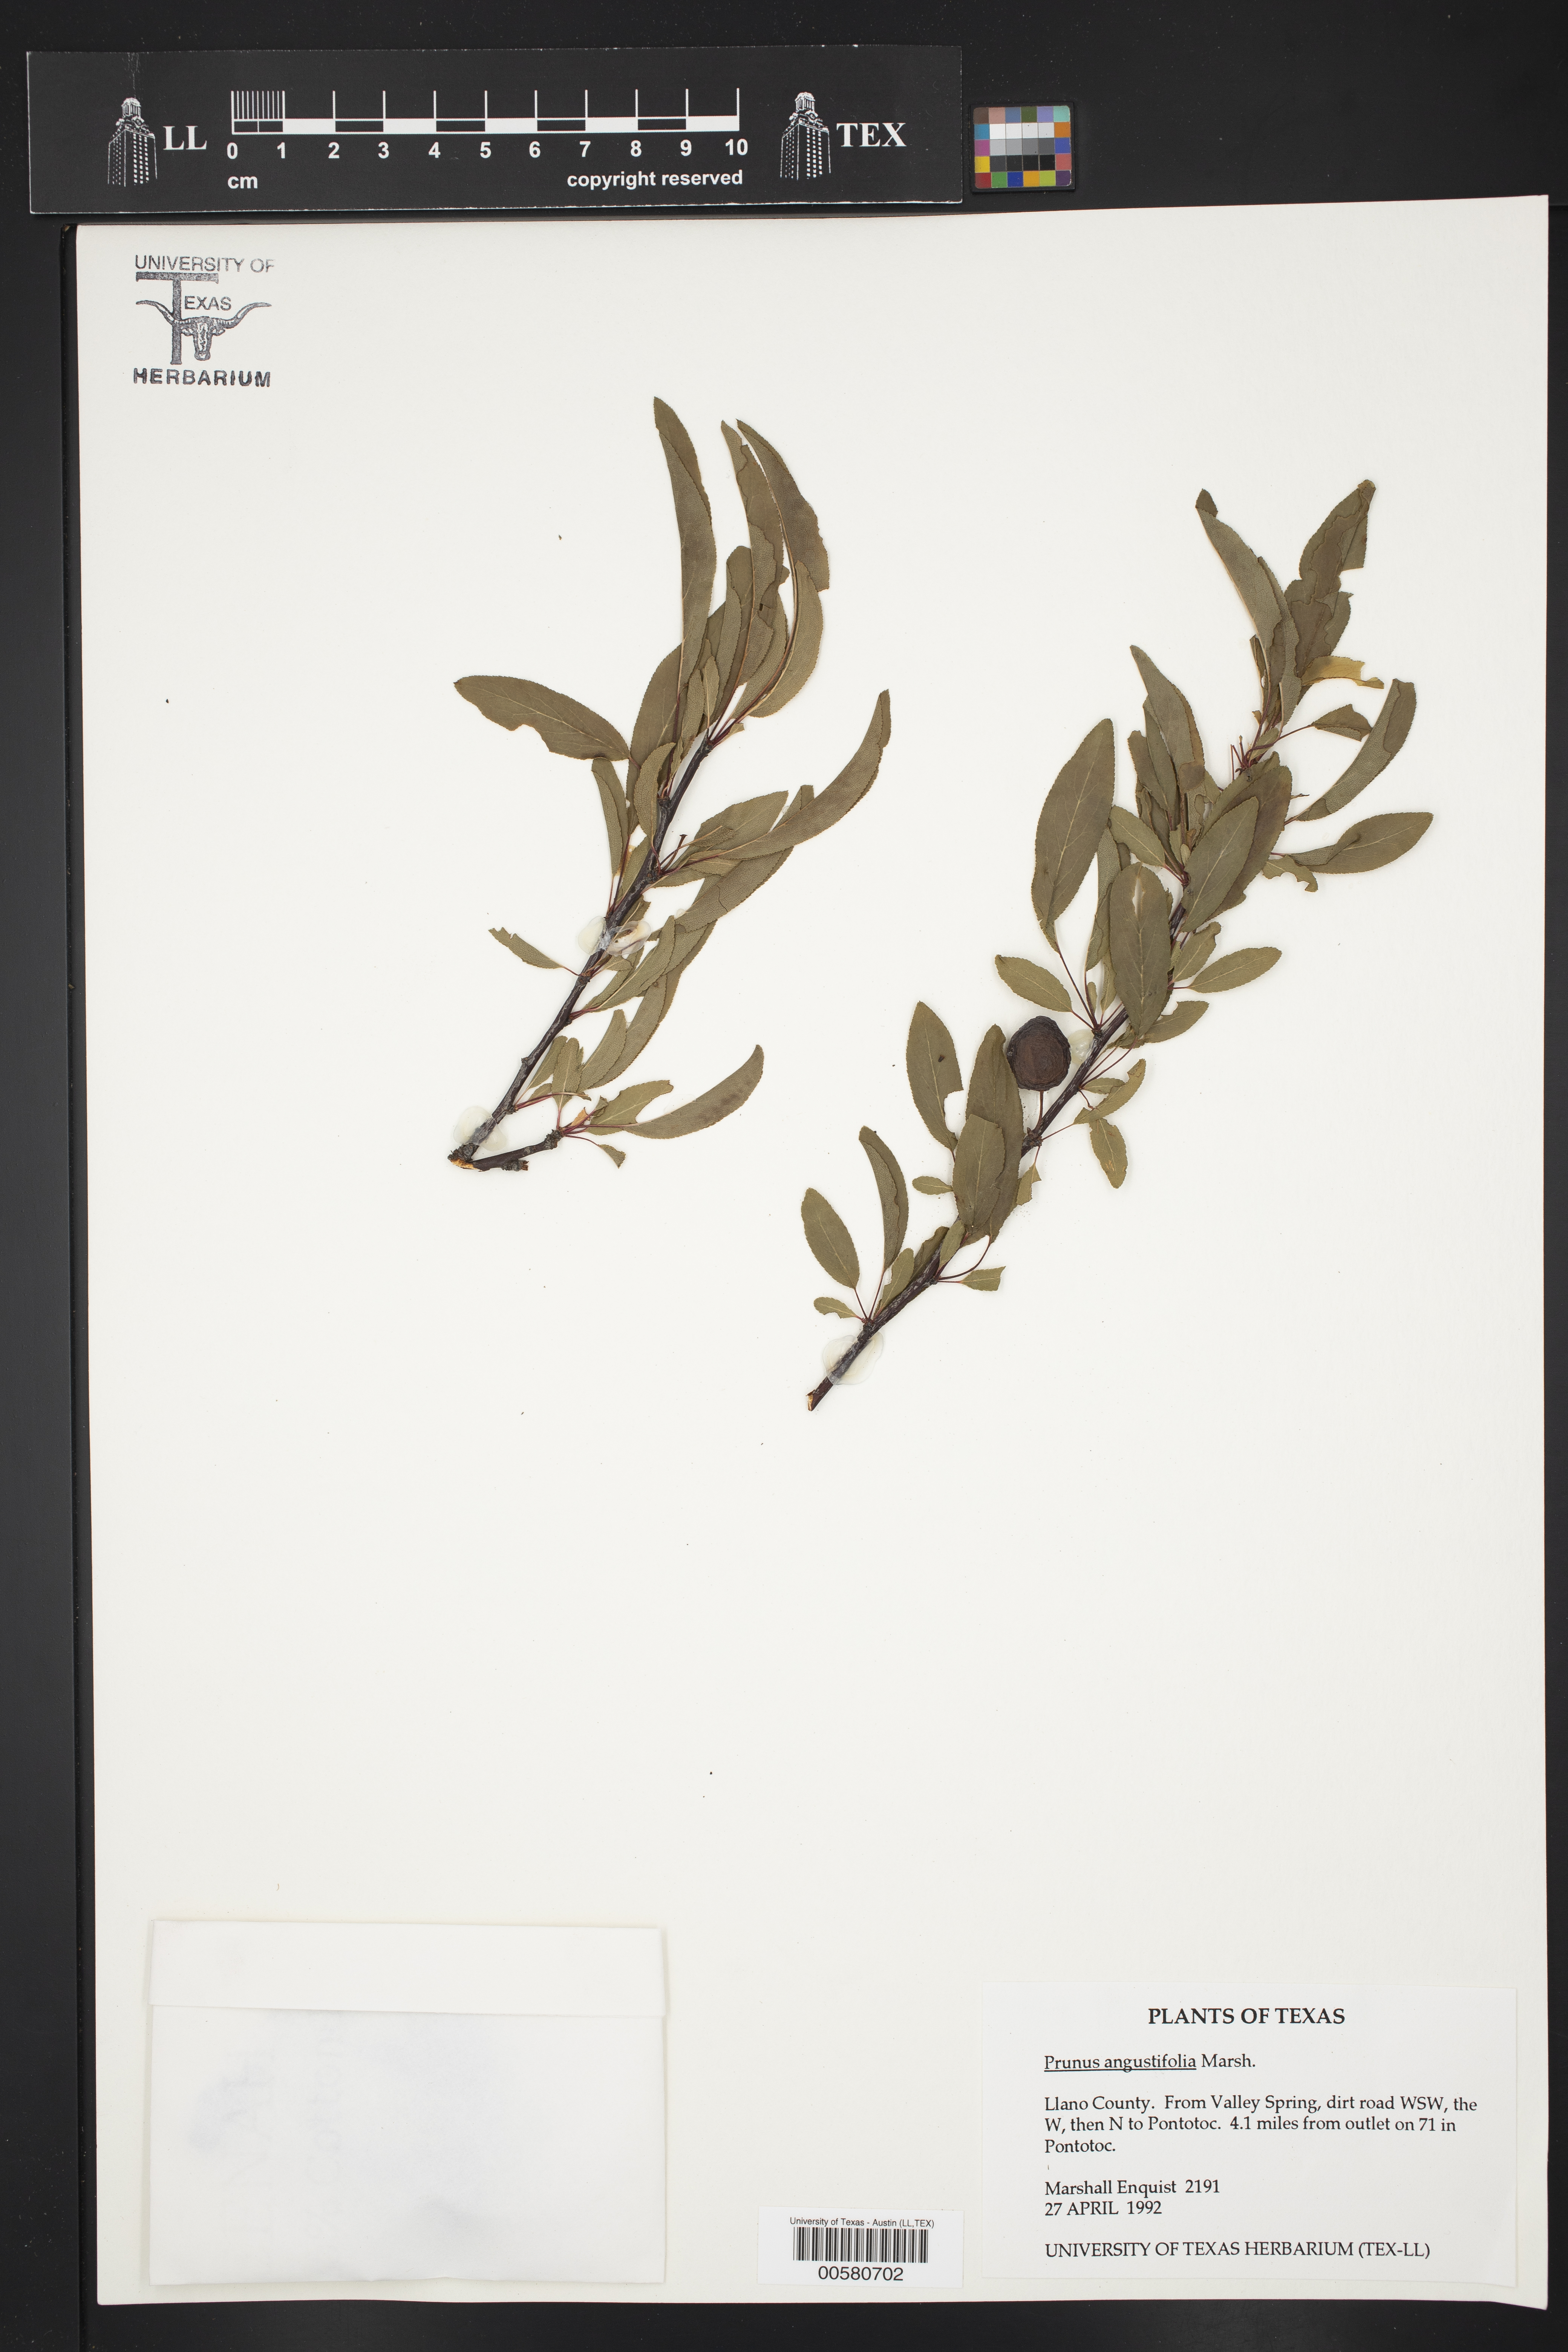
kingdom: Plantae
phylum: Tracheophyta
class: Magnoliopsida
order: Rosales
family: Rosaceae
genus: Prunus
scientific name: Prunus angustifolia
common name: Cherokee plum
